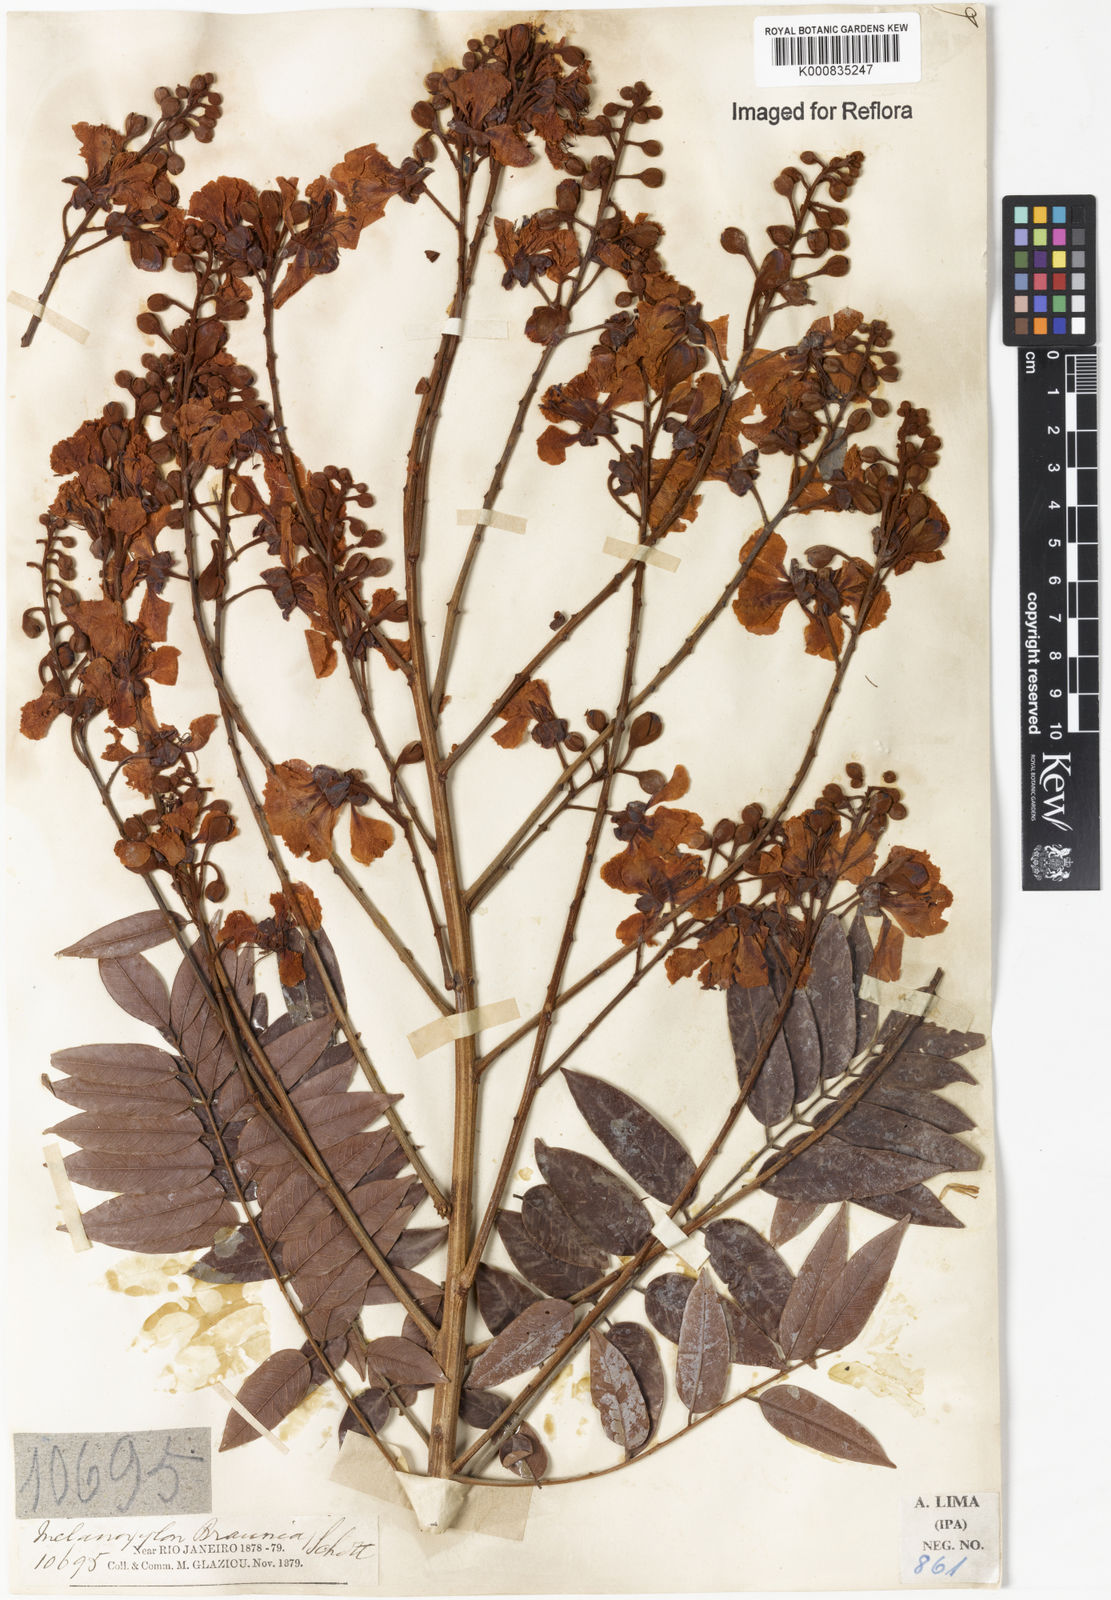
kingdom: Plantae
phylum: Tracheophyta
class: Magnoliopsida
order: Fabales
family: Fabaceae
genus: Melanoxylum
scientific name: Melanoxylum brauna
